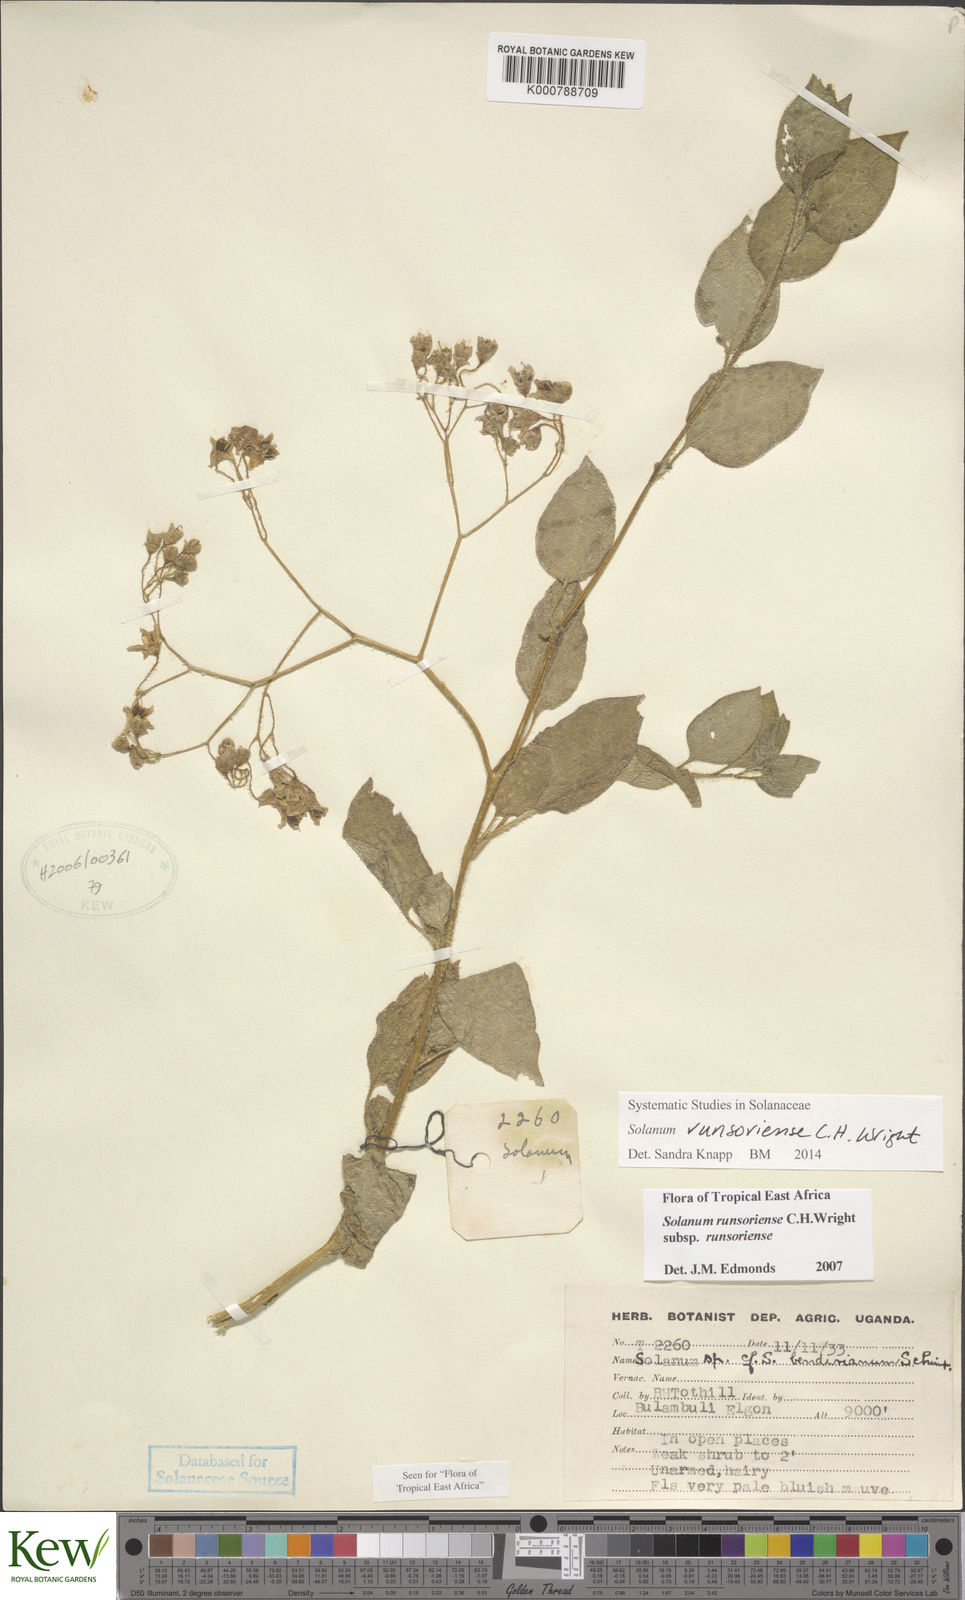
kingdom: Plantae
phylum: Tracheophyta
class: Magnoliopsida
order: Solanales
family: Solanaceae
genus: Solanum
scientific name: Solanum runsoriense
